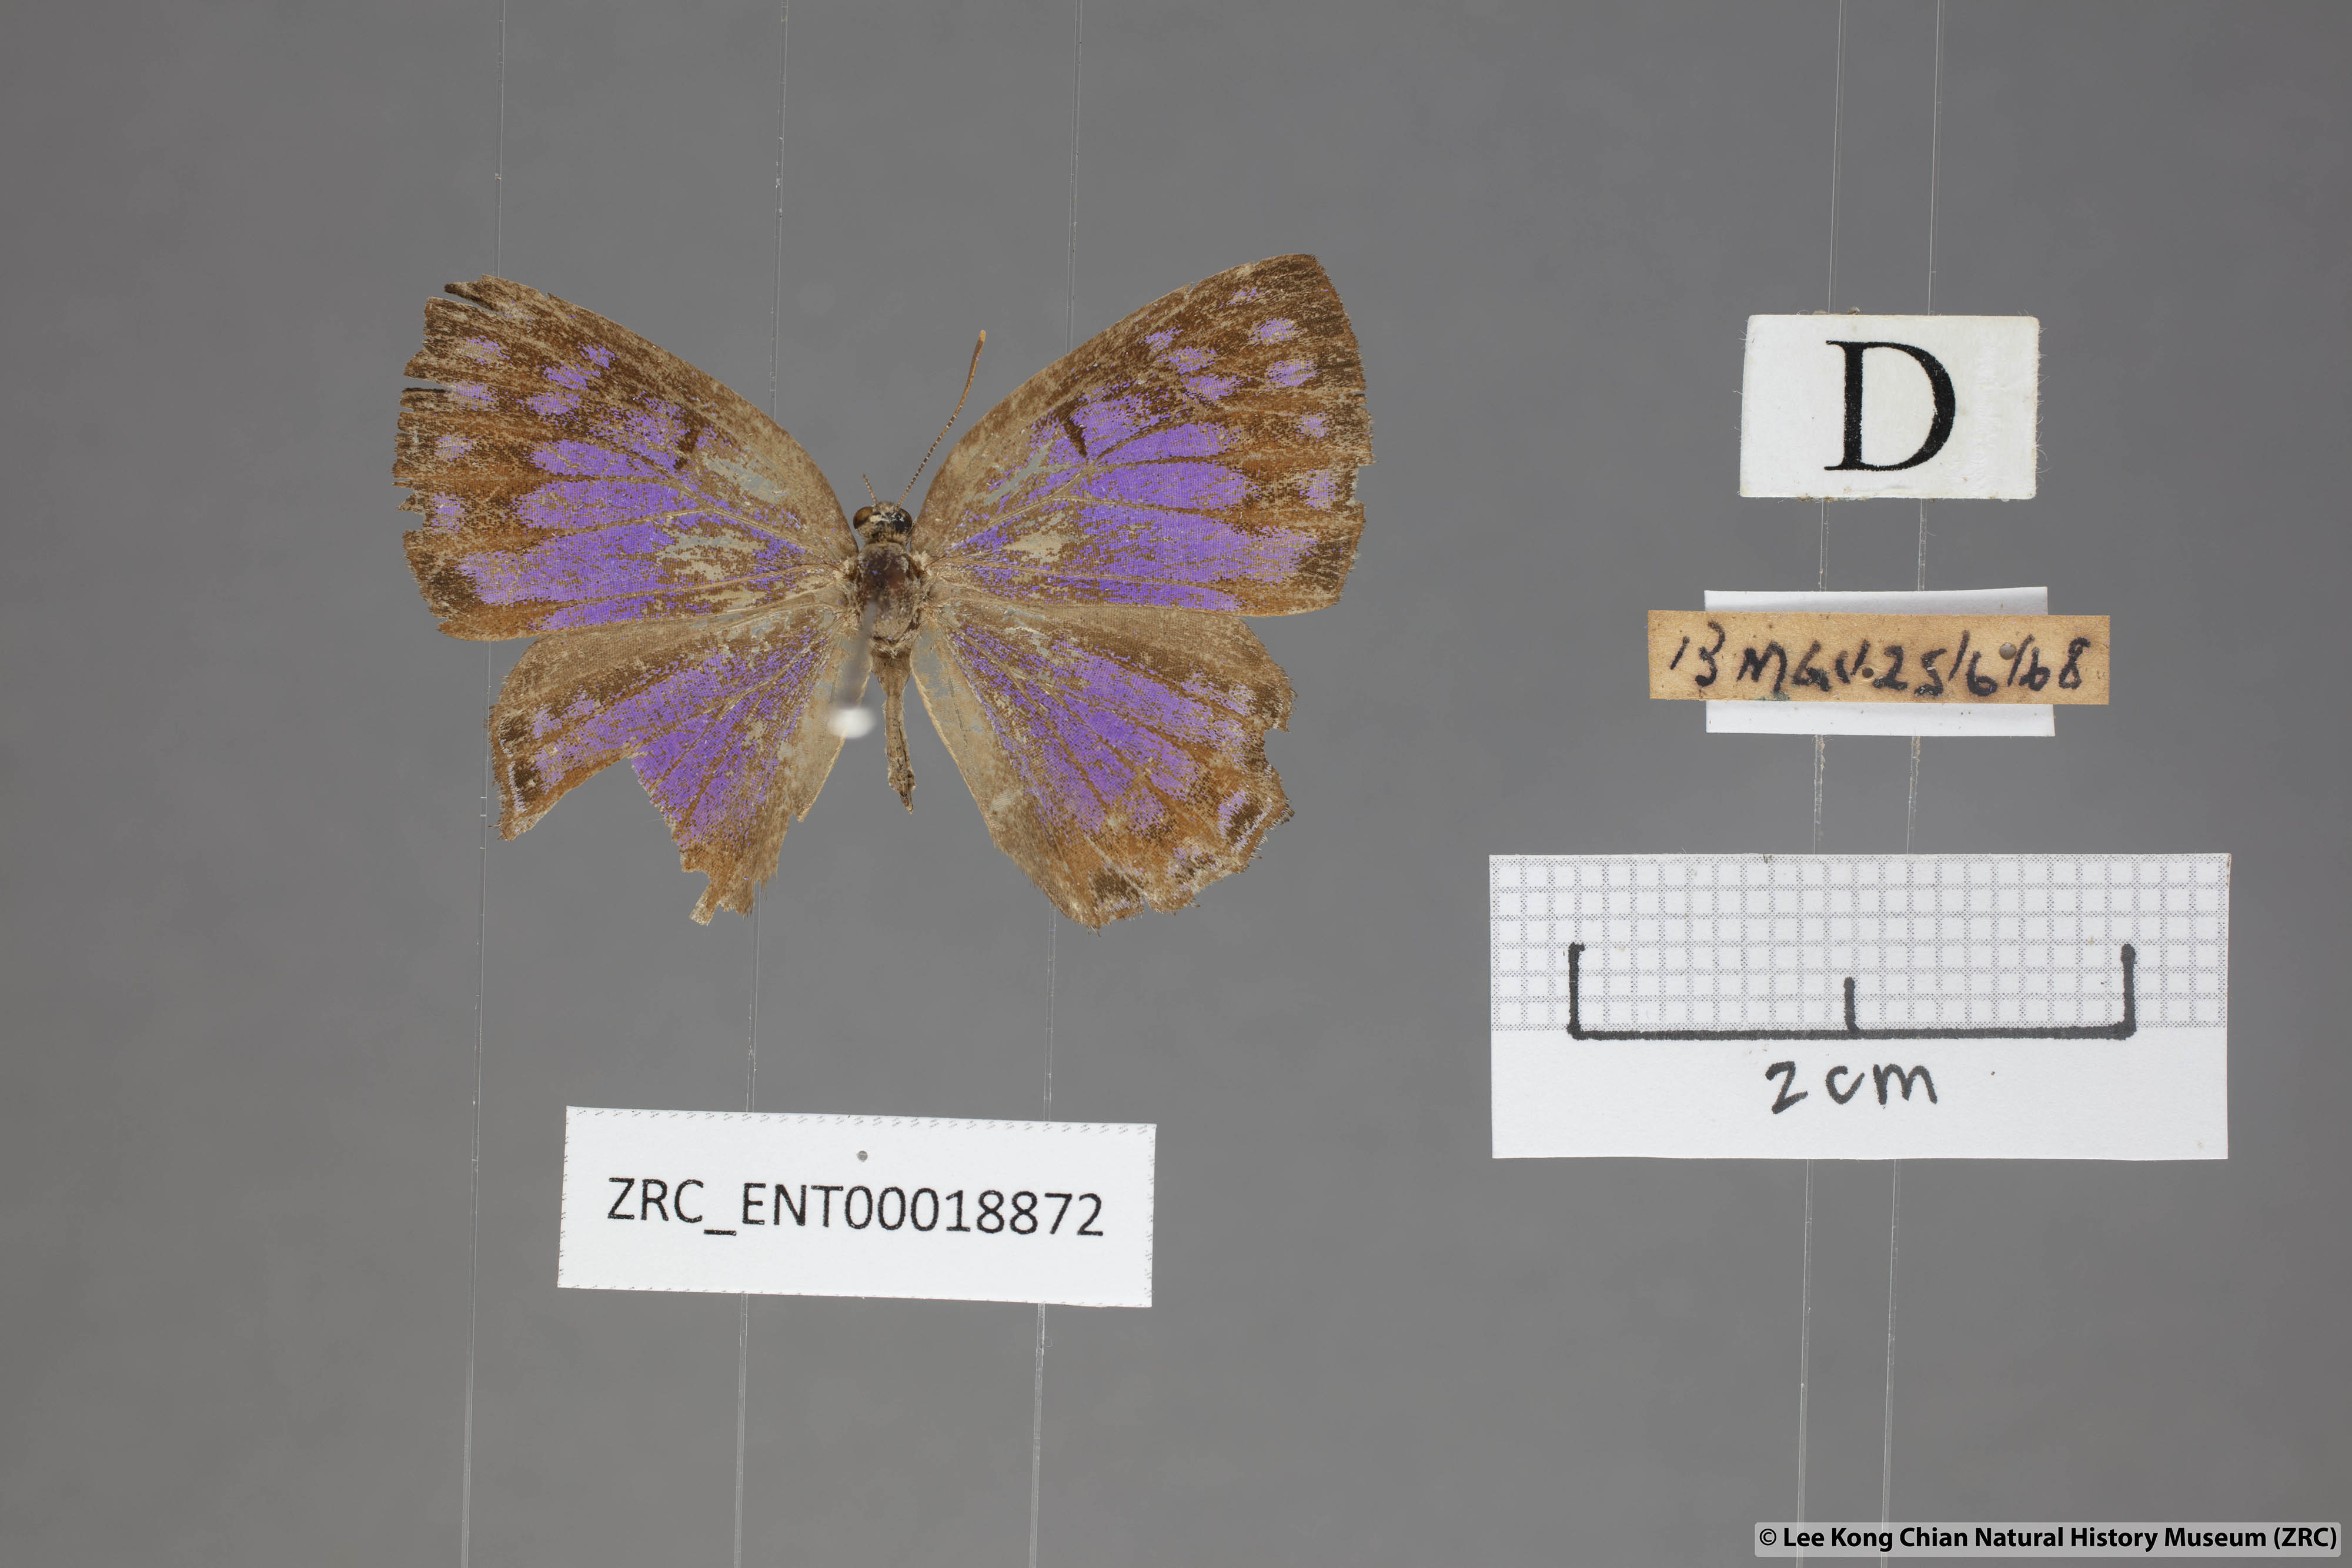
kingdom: Animalia
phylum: Arthropoda
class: Insecta
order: Lepidoptera
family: Lycaenidae
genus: Poritia
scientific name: Poritia sumatrae
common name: Sumatran gem
